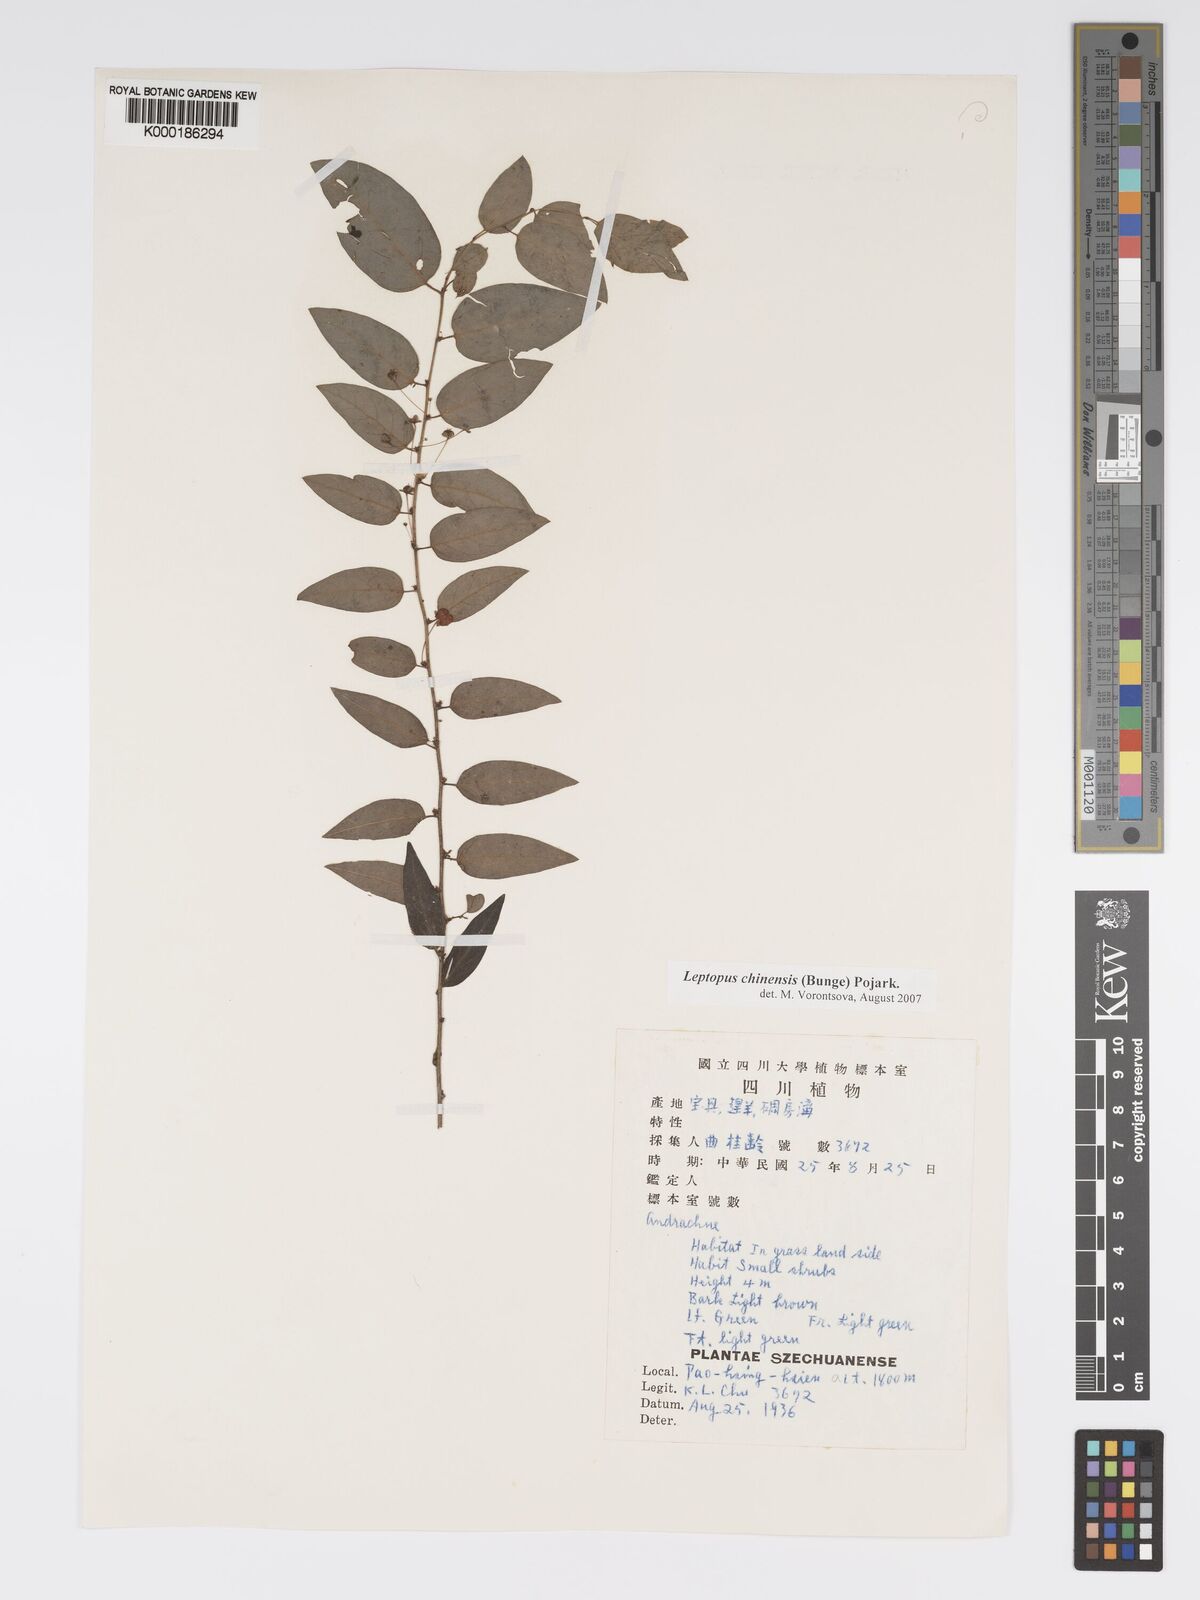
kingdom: Plantae
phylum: Tracheophyta
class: Magnoliopsida
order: Malpighiales
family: Phyllanthaceae
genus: Leptopus
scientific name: Leptopus chinensis
